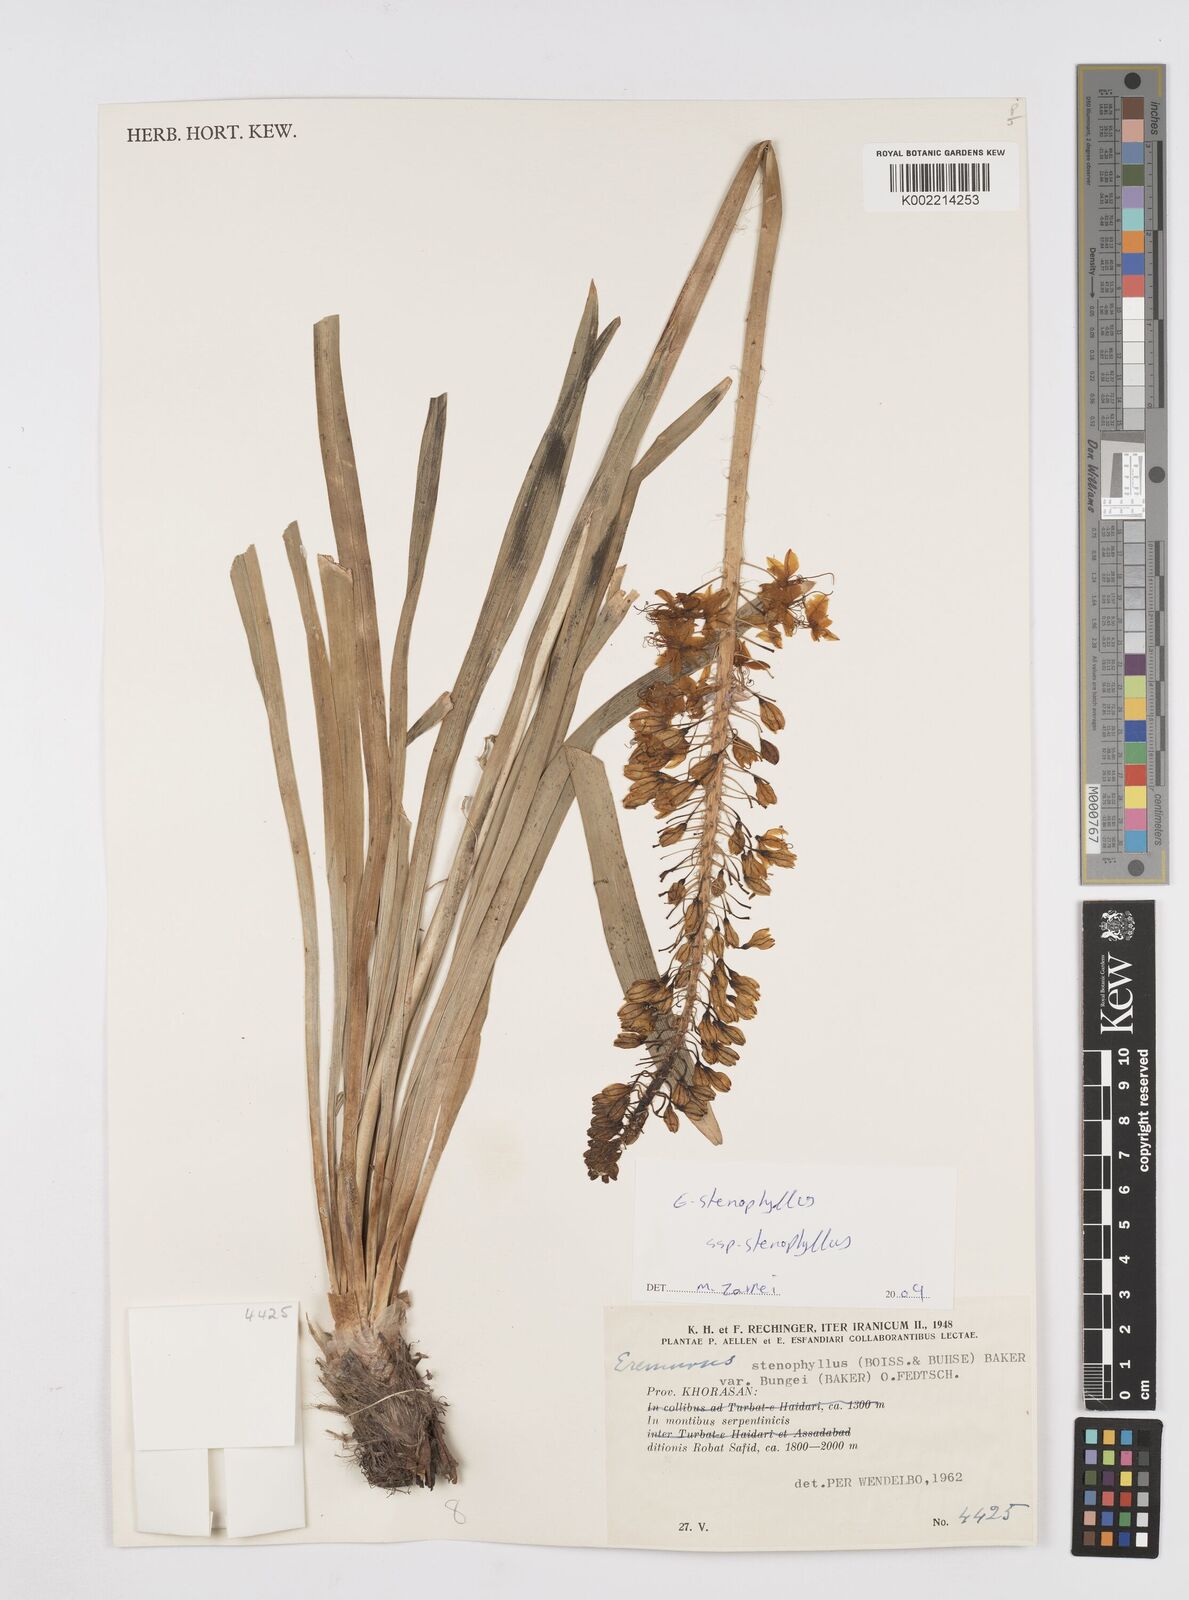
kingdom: Plantae
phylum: Tracheophyta
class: Liliopsida
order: Asparagales
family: Asphodelaceae
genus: Eremurus
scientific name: Eremurus stenophyllus
